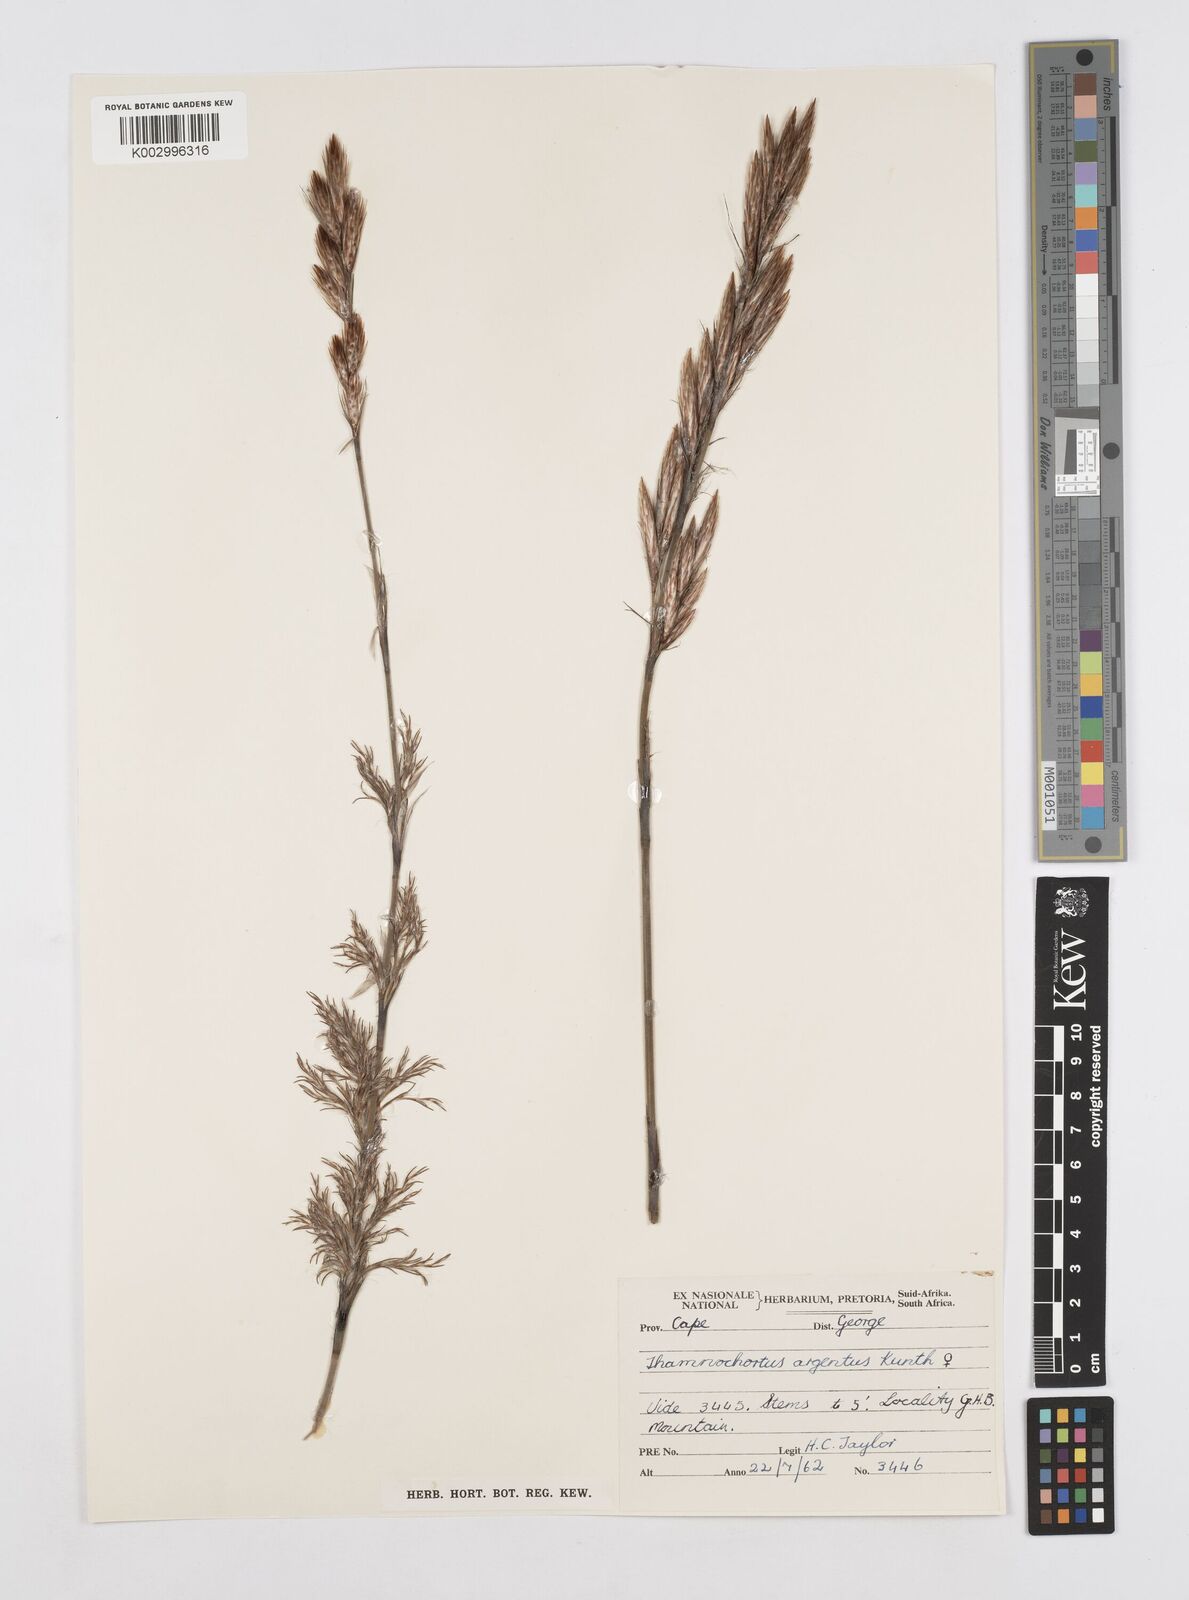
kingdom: Plantae
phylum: Tracheophyta
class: Liliopsida
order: Poales
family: Restionaceae
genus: Hypodiscus
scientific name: Hypodiscus argenteus
